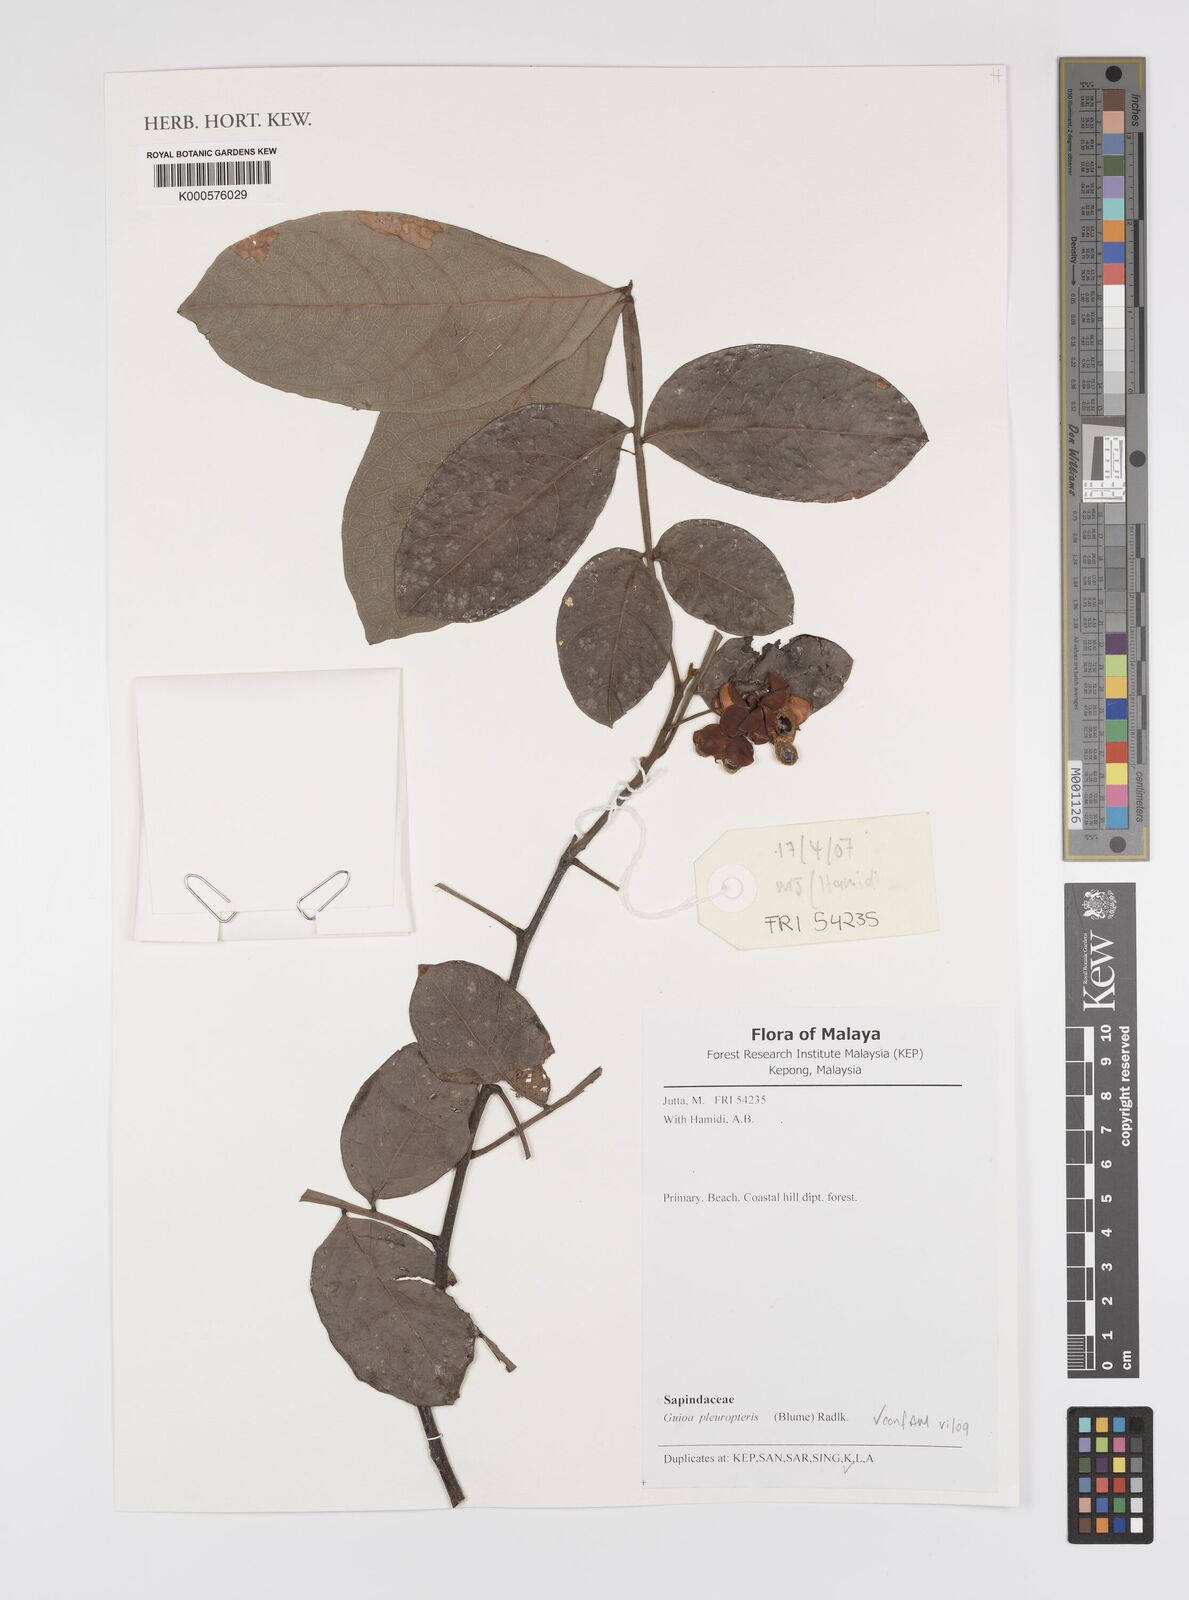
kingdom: Plantae
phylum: Tracheophyta
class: Magnoliopsida
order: Sapindales
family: Sapindaceae
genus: Guioa
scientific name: Guioa pleuropteris
